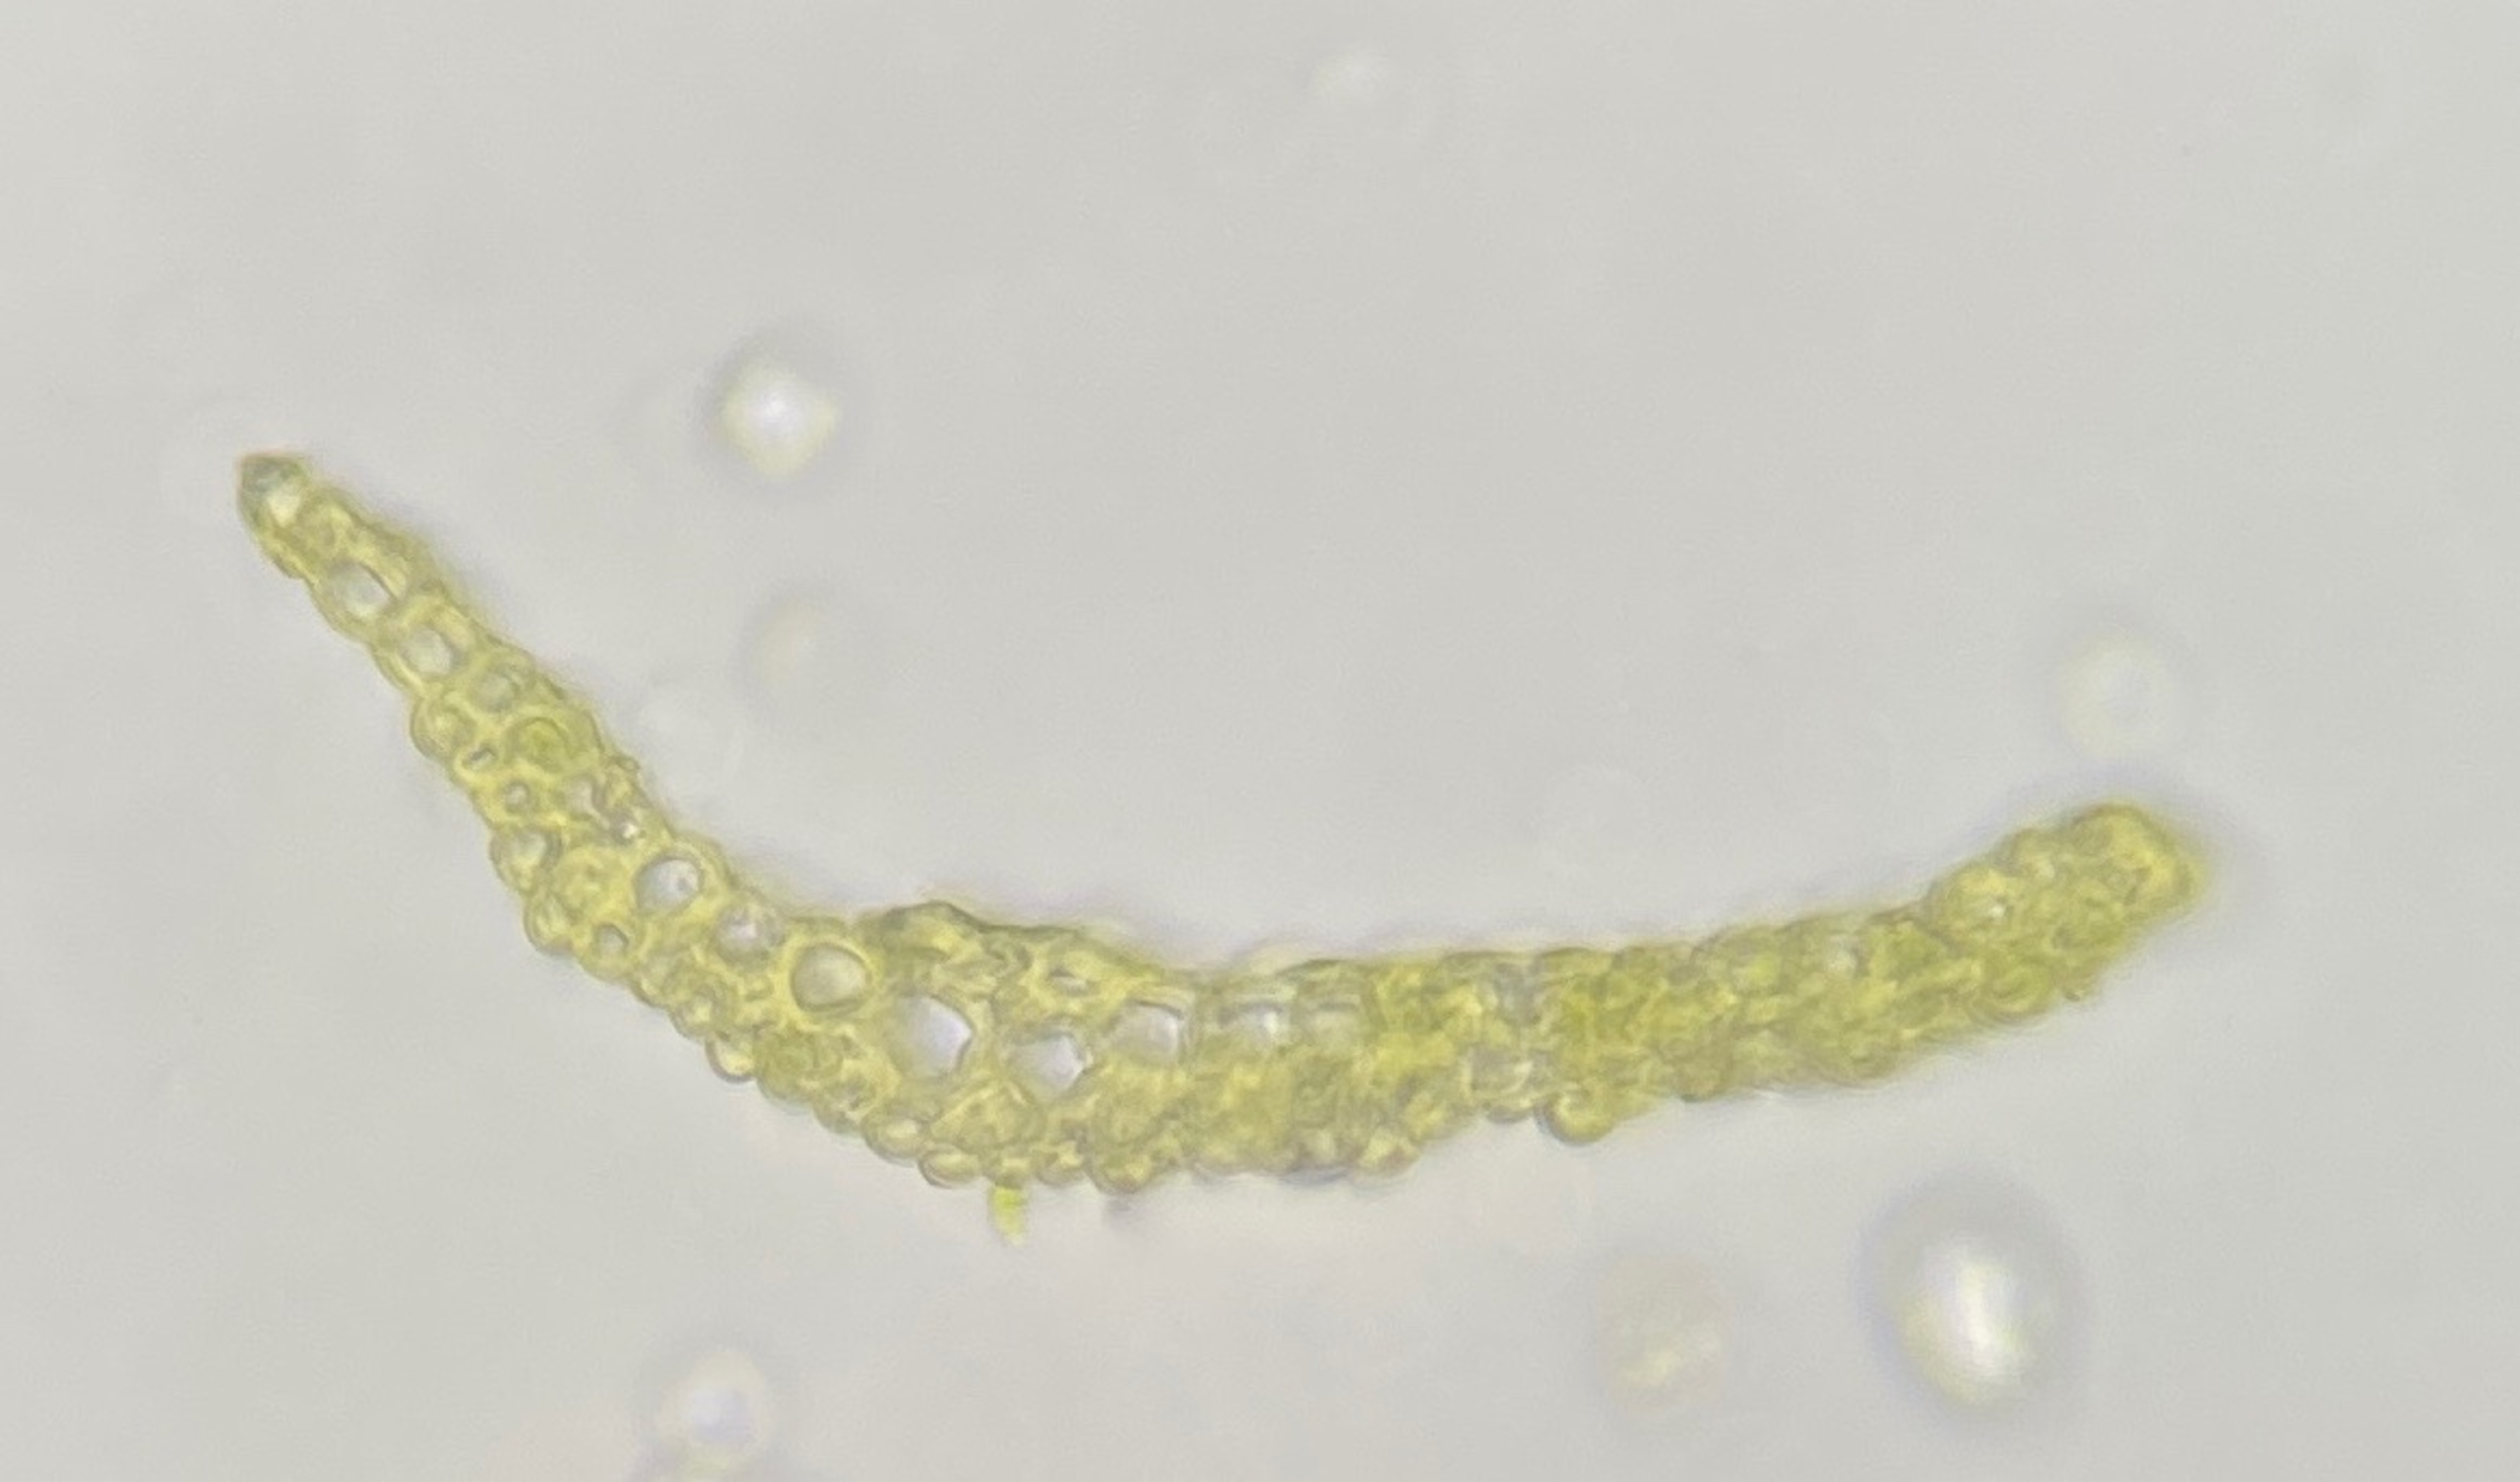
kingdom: Plantae
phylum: Bryophyta
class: Bryopsida
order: Dicranales
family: Ditrichaceae
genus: Pleuridium
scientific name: Pleuridium acuminatum
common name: Siddende sylbladsmos
